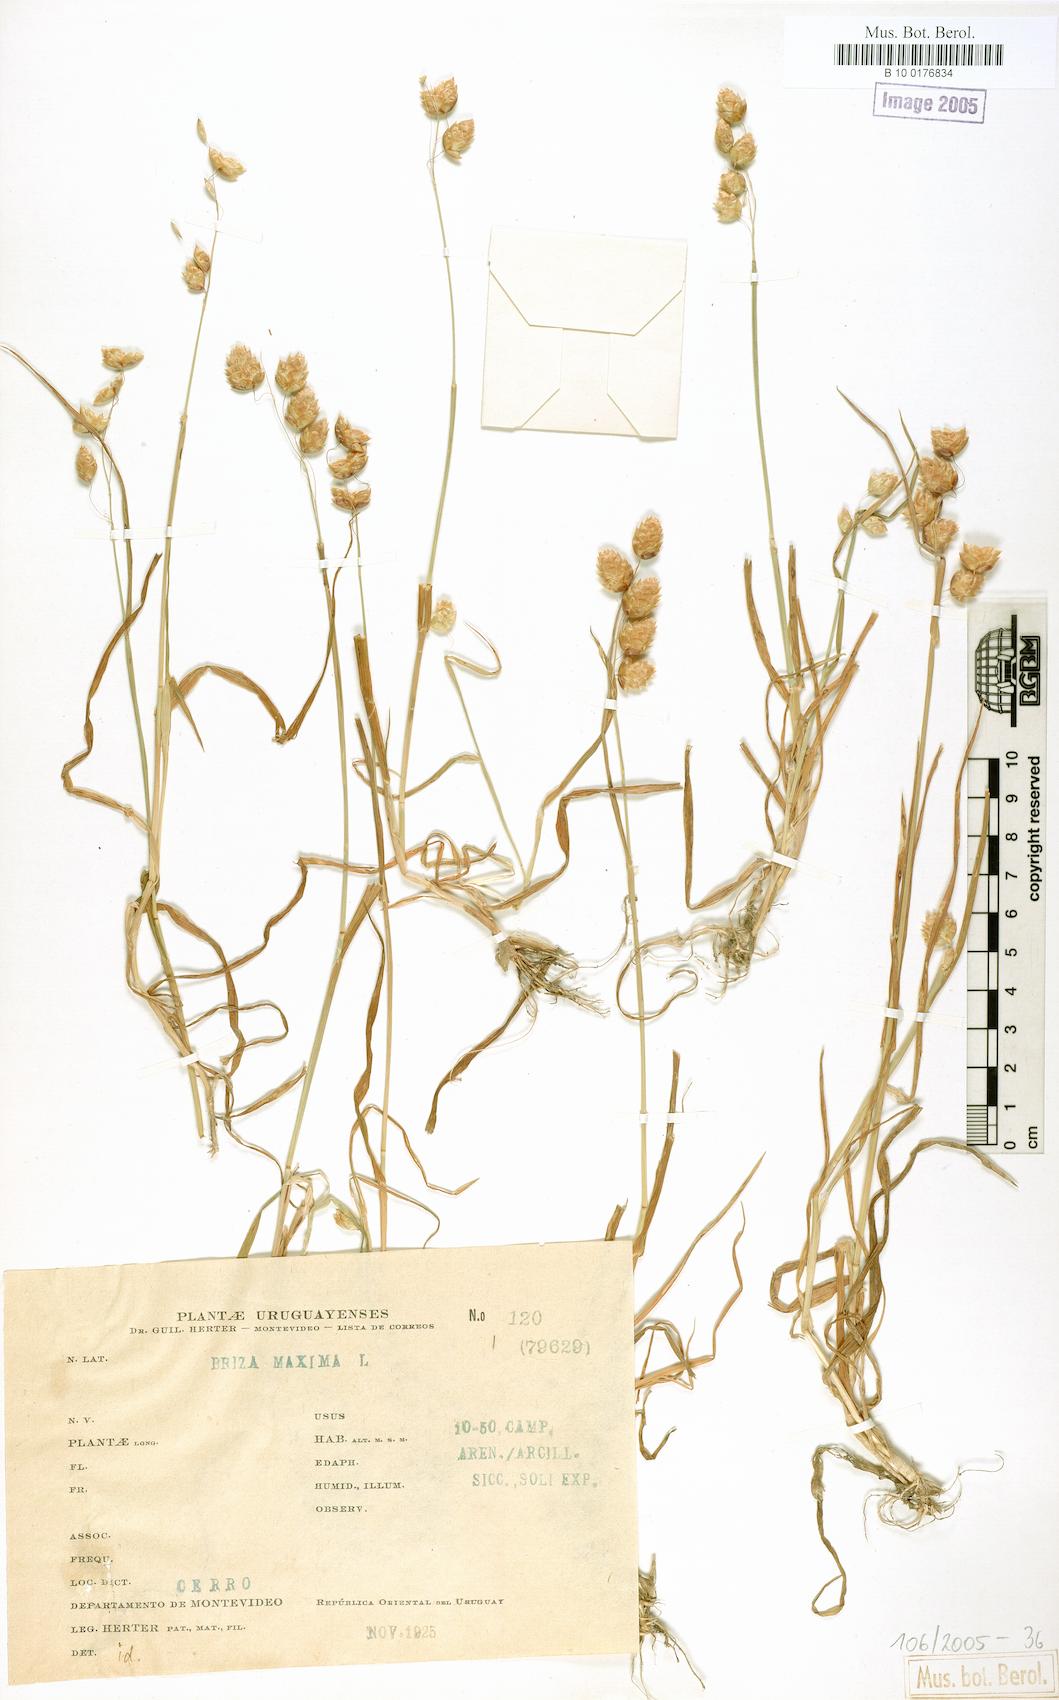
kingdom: Plantae
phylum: Tracheophyta
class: Liliopsida
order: Poales
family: Poaceae
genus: Briza
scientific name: Briza maxima
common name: Big quakinggrass
